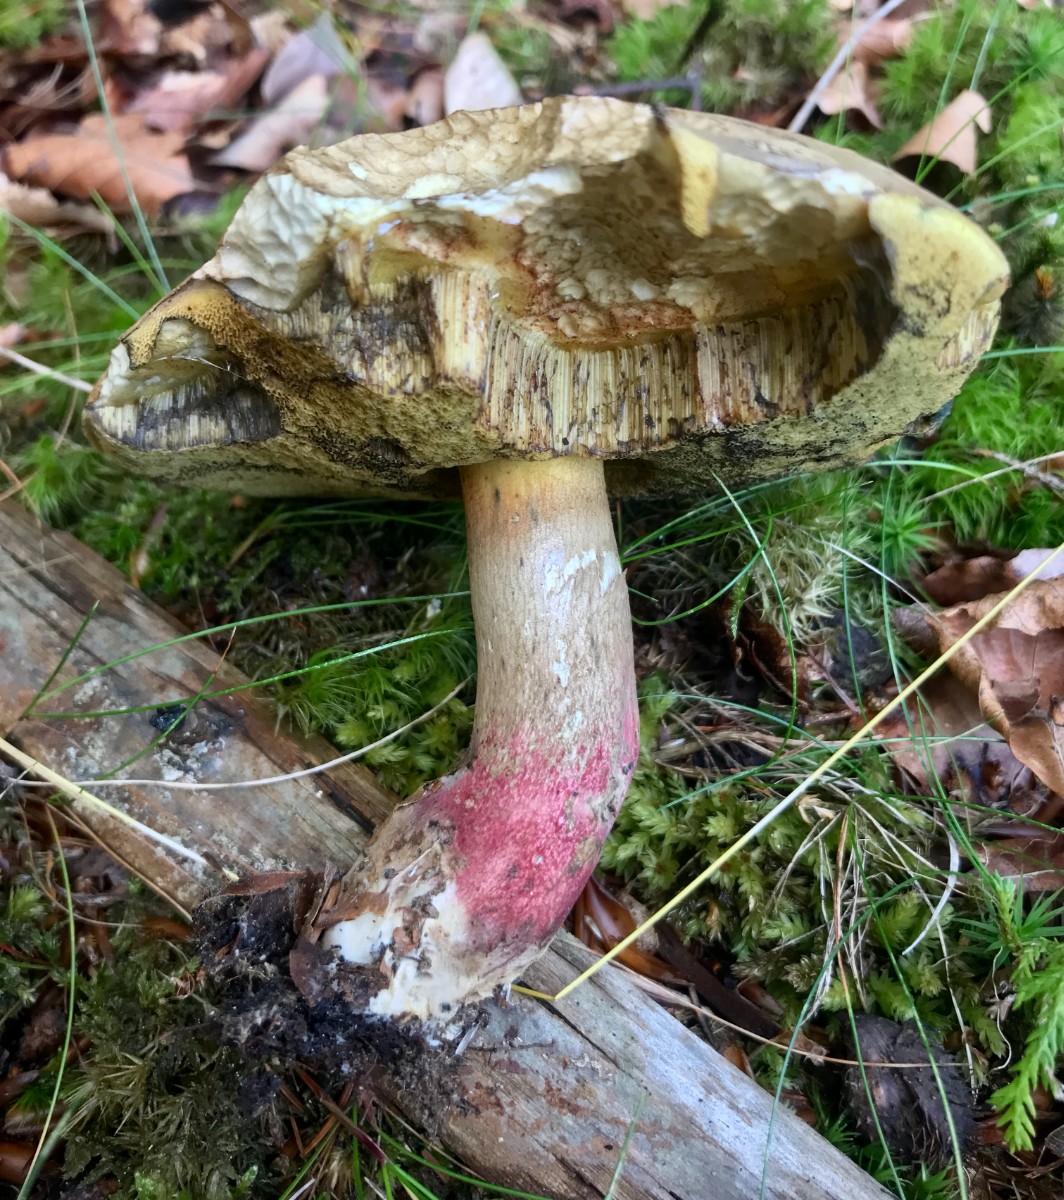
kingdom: Fungi
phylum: Basidiomycota
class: Agaricomycetes
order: Boletales
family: Boletaceae
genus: Caloboletus
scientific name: Caloboletus calopus
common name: skønfodet rørhat
